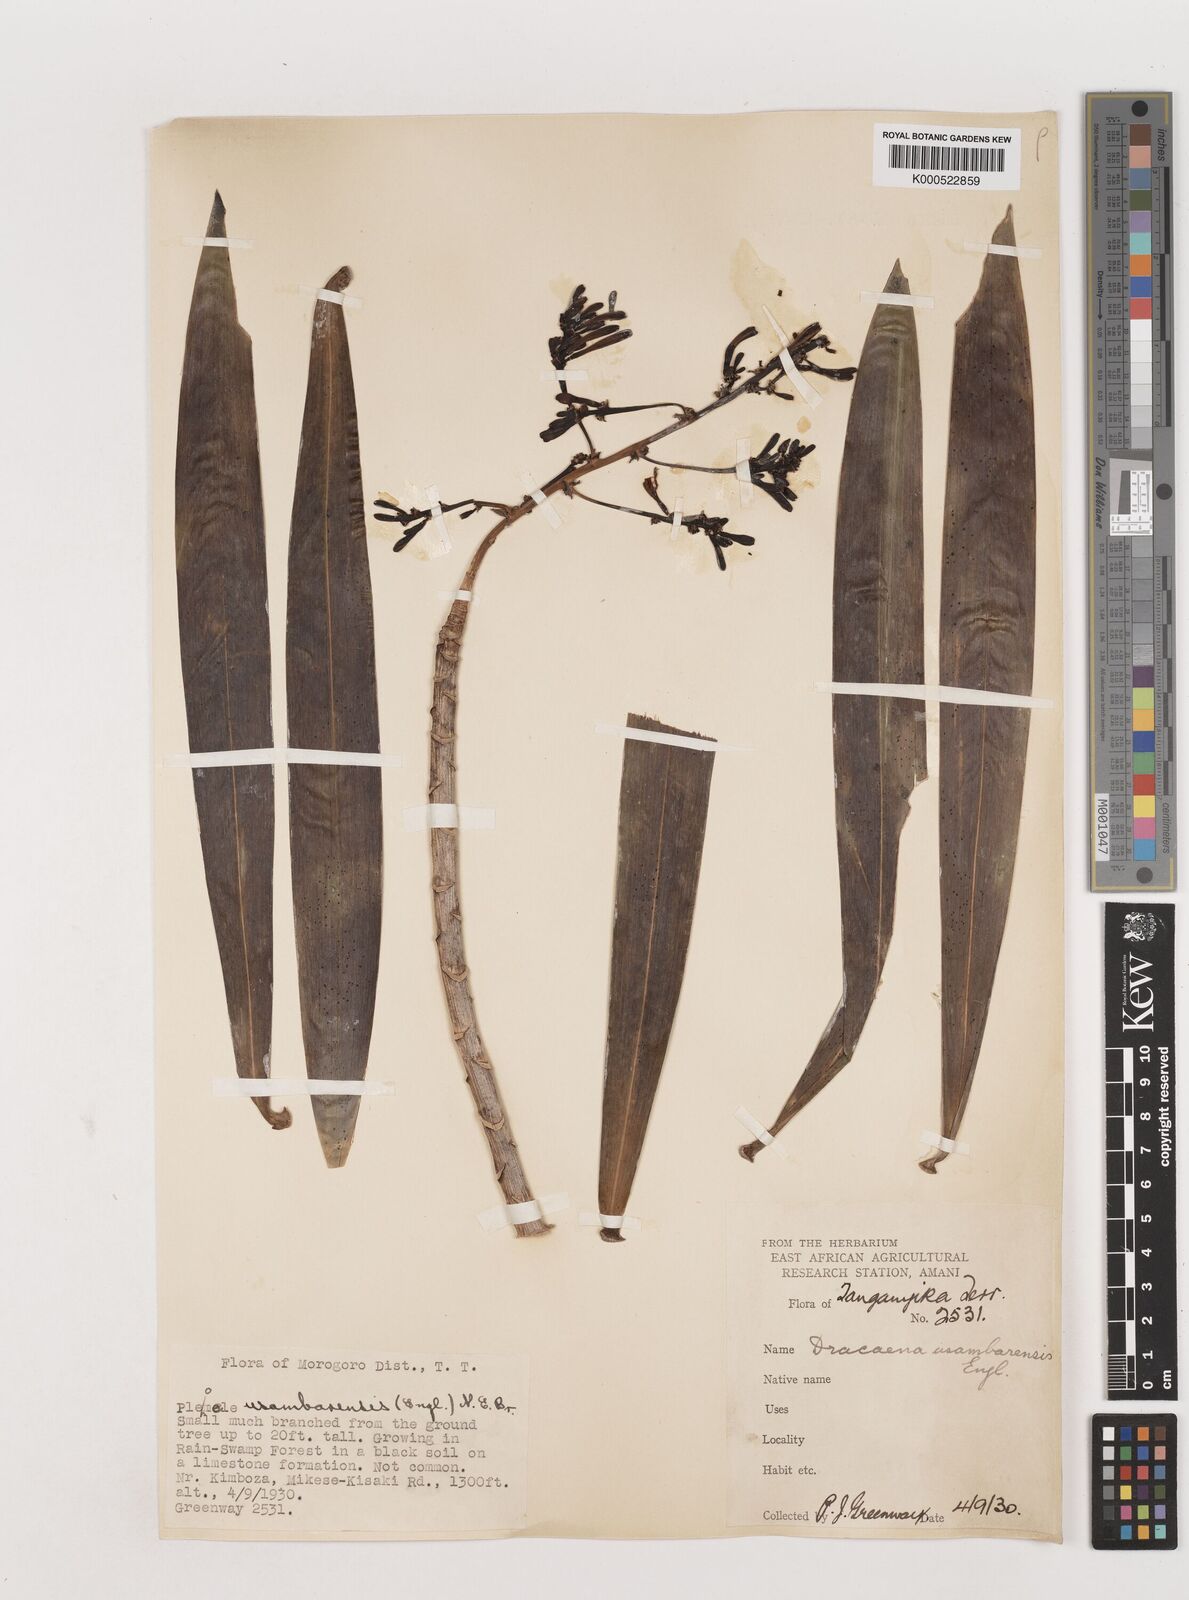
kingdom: Plantae
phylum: Tracheophyta
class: Liliopsida
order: Asparagales
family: Asparagaceae
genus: Dracaena
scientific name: Dracaena usambarensis
